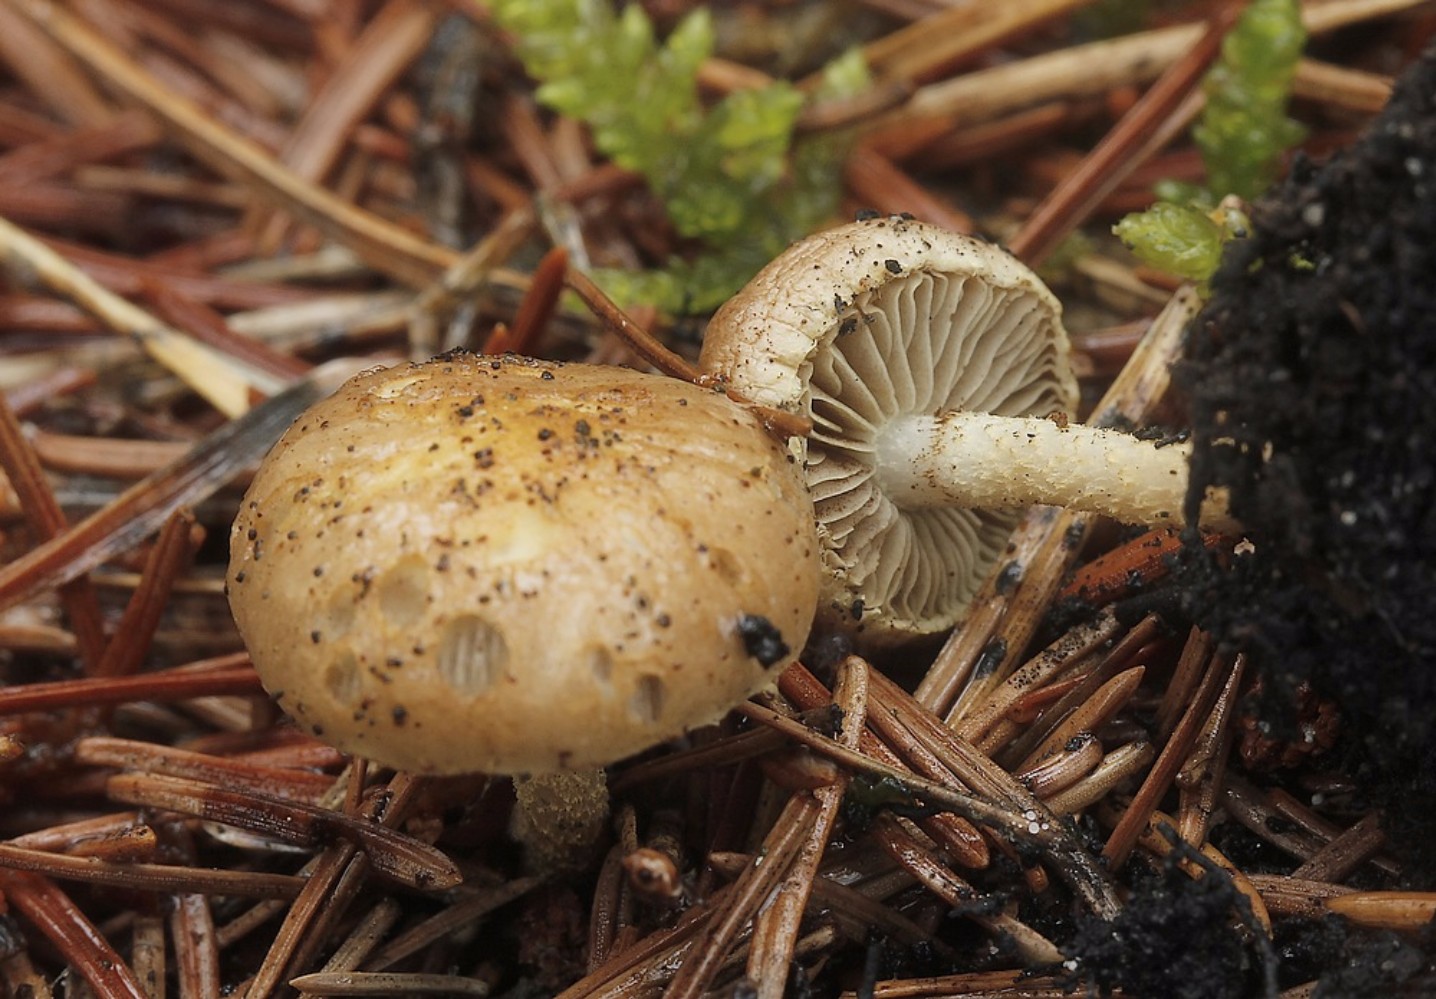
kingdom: Fungi
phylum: Basidiomycota
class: Agaricomycetes
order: Agaricales
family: Strophariaceae
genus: Pholiota
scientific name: Pholiota carbonaria
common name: kul-skælhat
